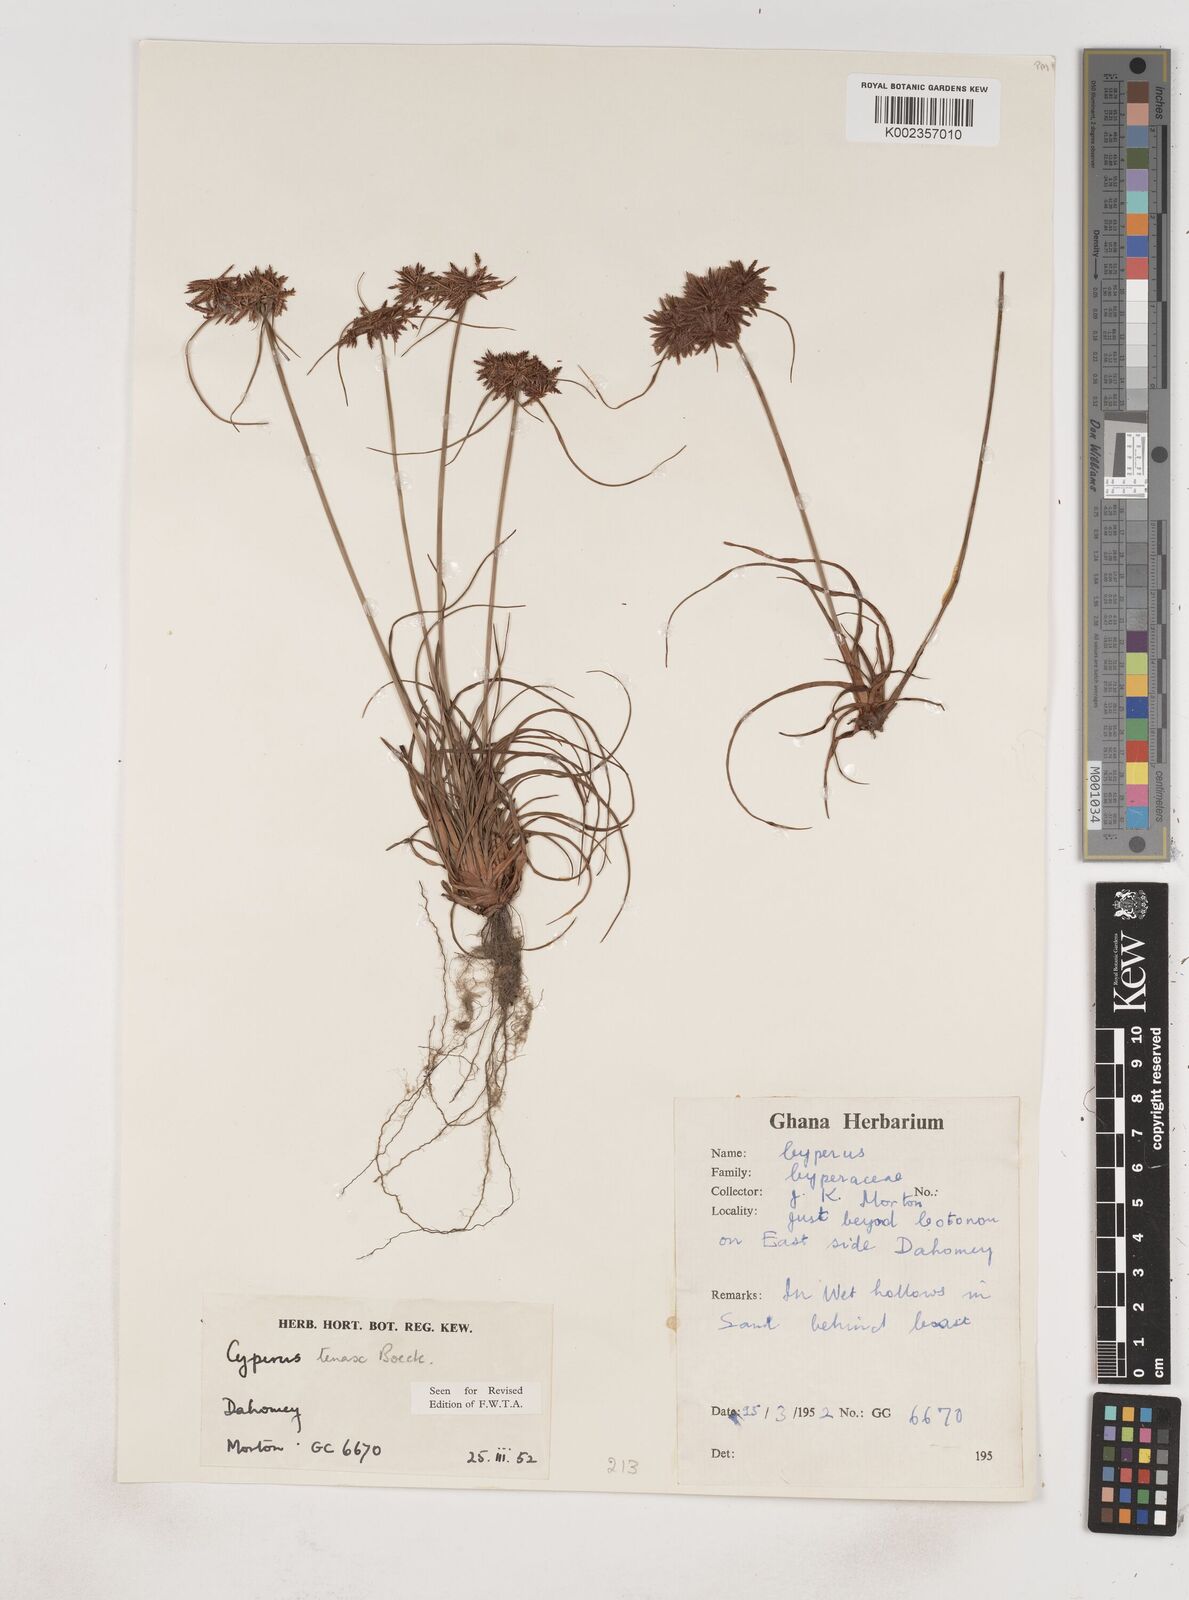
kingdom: Plantae
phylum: Tracheophyta
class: Liliopsida
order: Poales
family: Cyperaceae
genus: Cyperus
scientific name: Cyperus tenax
